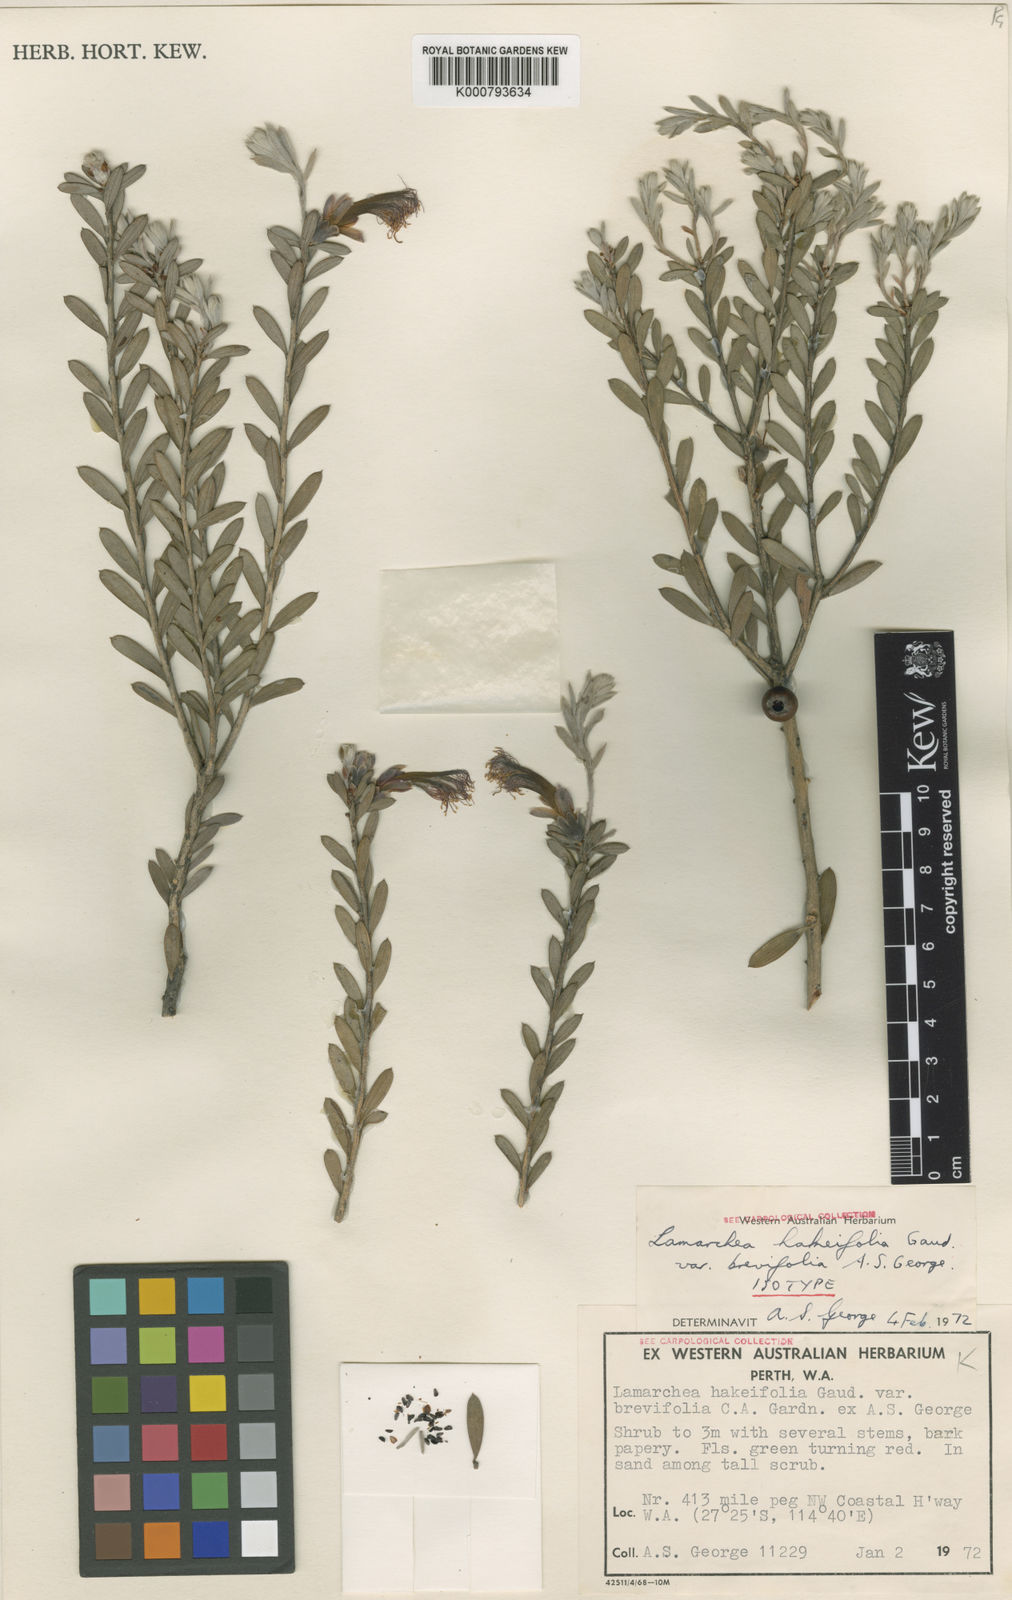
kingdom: Plantae
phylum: Tracheophyta
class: Magnoliopsida
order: Myrtales
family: Myrtaceae
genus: Melaleuca
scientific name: Melaleuca hakeifolia
